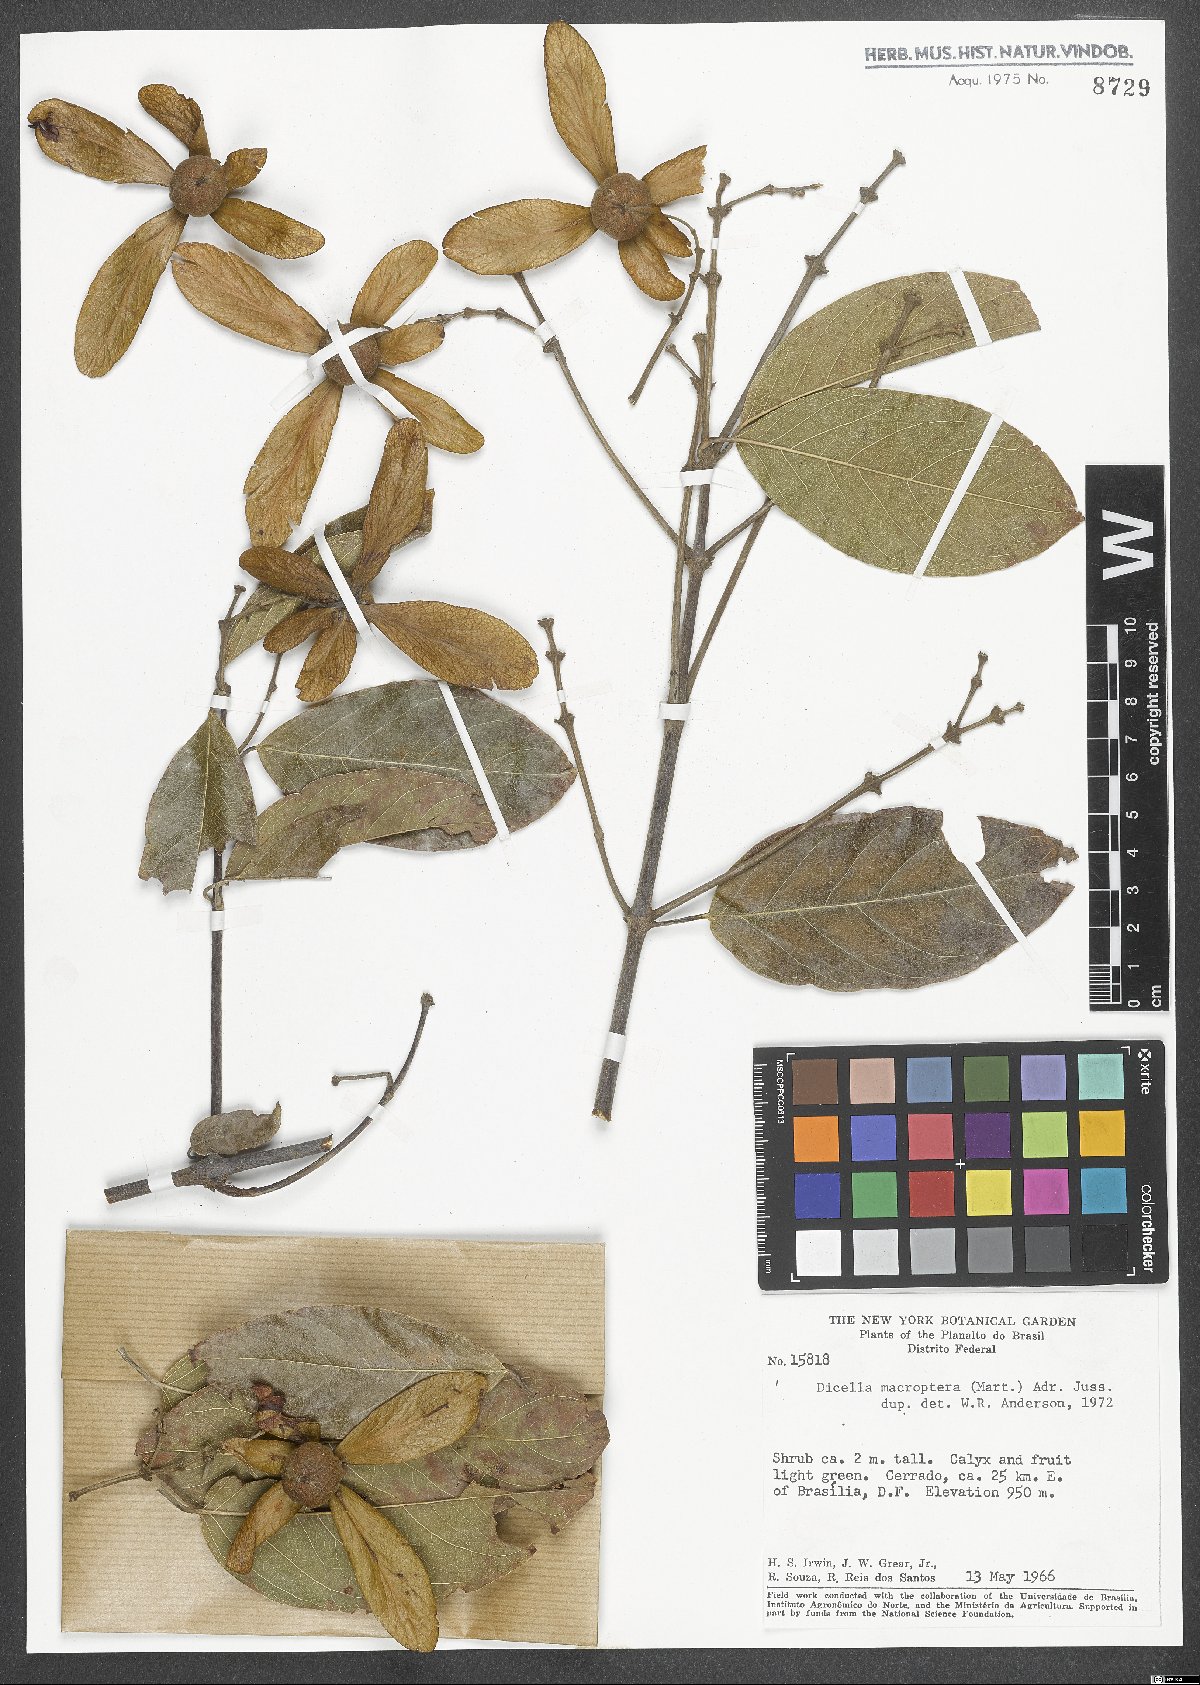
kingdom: Plantae
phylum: Tracheophyta
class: Magnoliopsida
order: Malpighiales
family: Malpighiaceae
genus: Dicella
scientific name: Dicella macroptera
